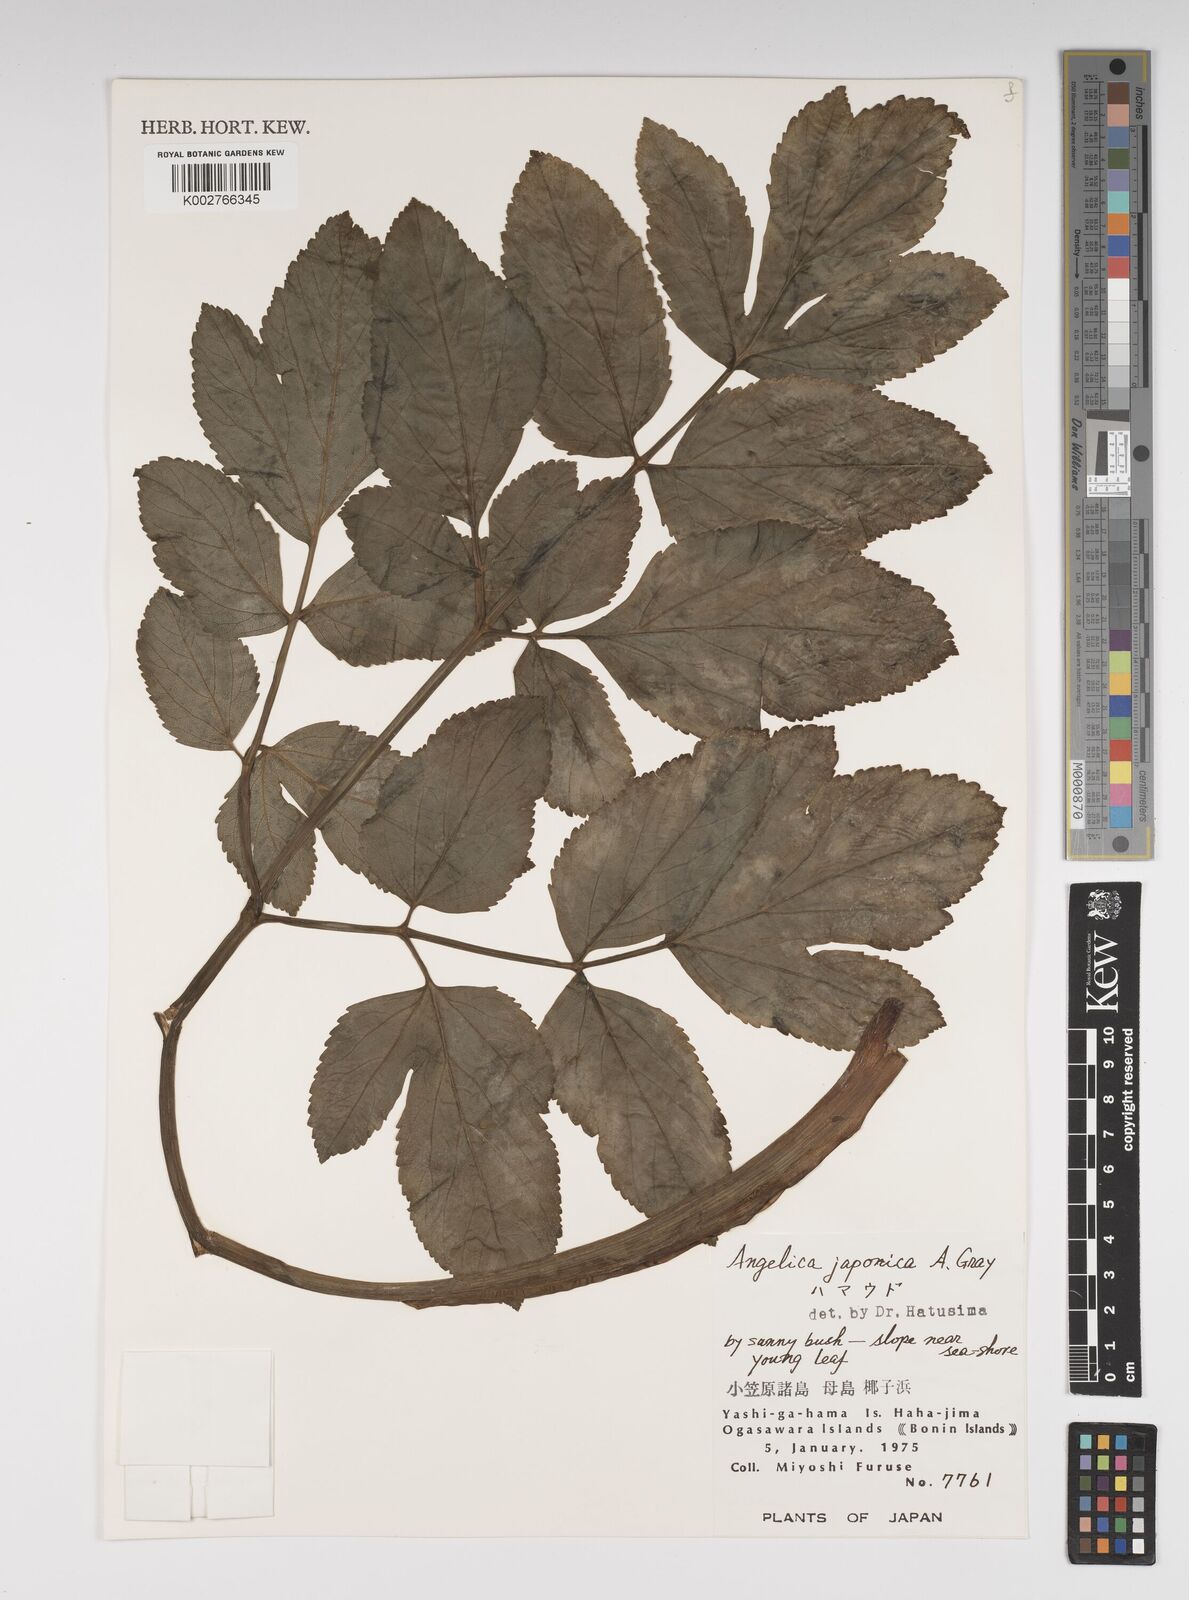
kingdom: Plantae
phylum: Tracheophyta
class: Magnoliopsida
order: Apiales
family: Apiaceae
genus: Angelica
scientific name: Angelica
